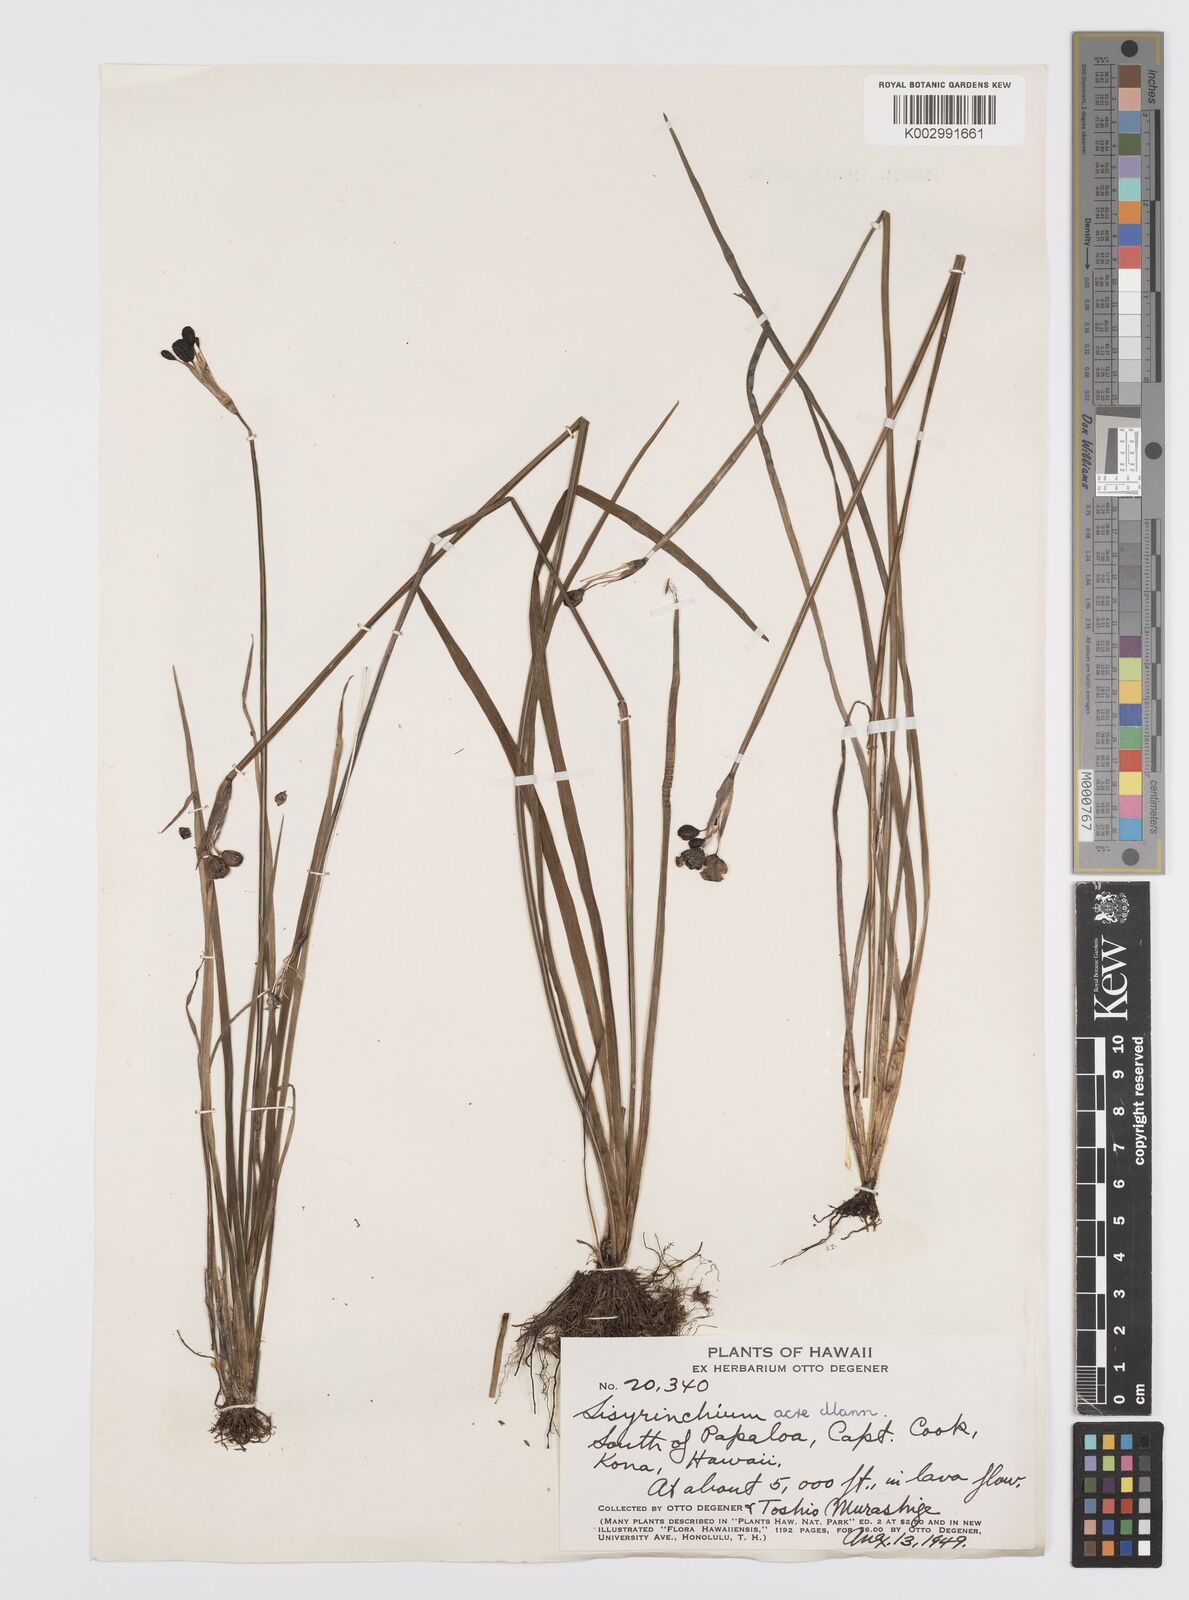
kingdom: Plantae
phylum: Tracheophyta
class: Liliopsida
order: Asparagales
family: Iridaceae
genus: Sisyrinchium
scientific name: Sisyrinchium acre
